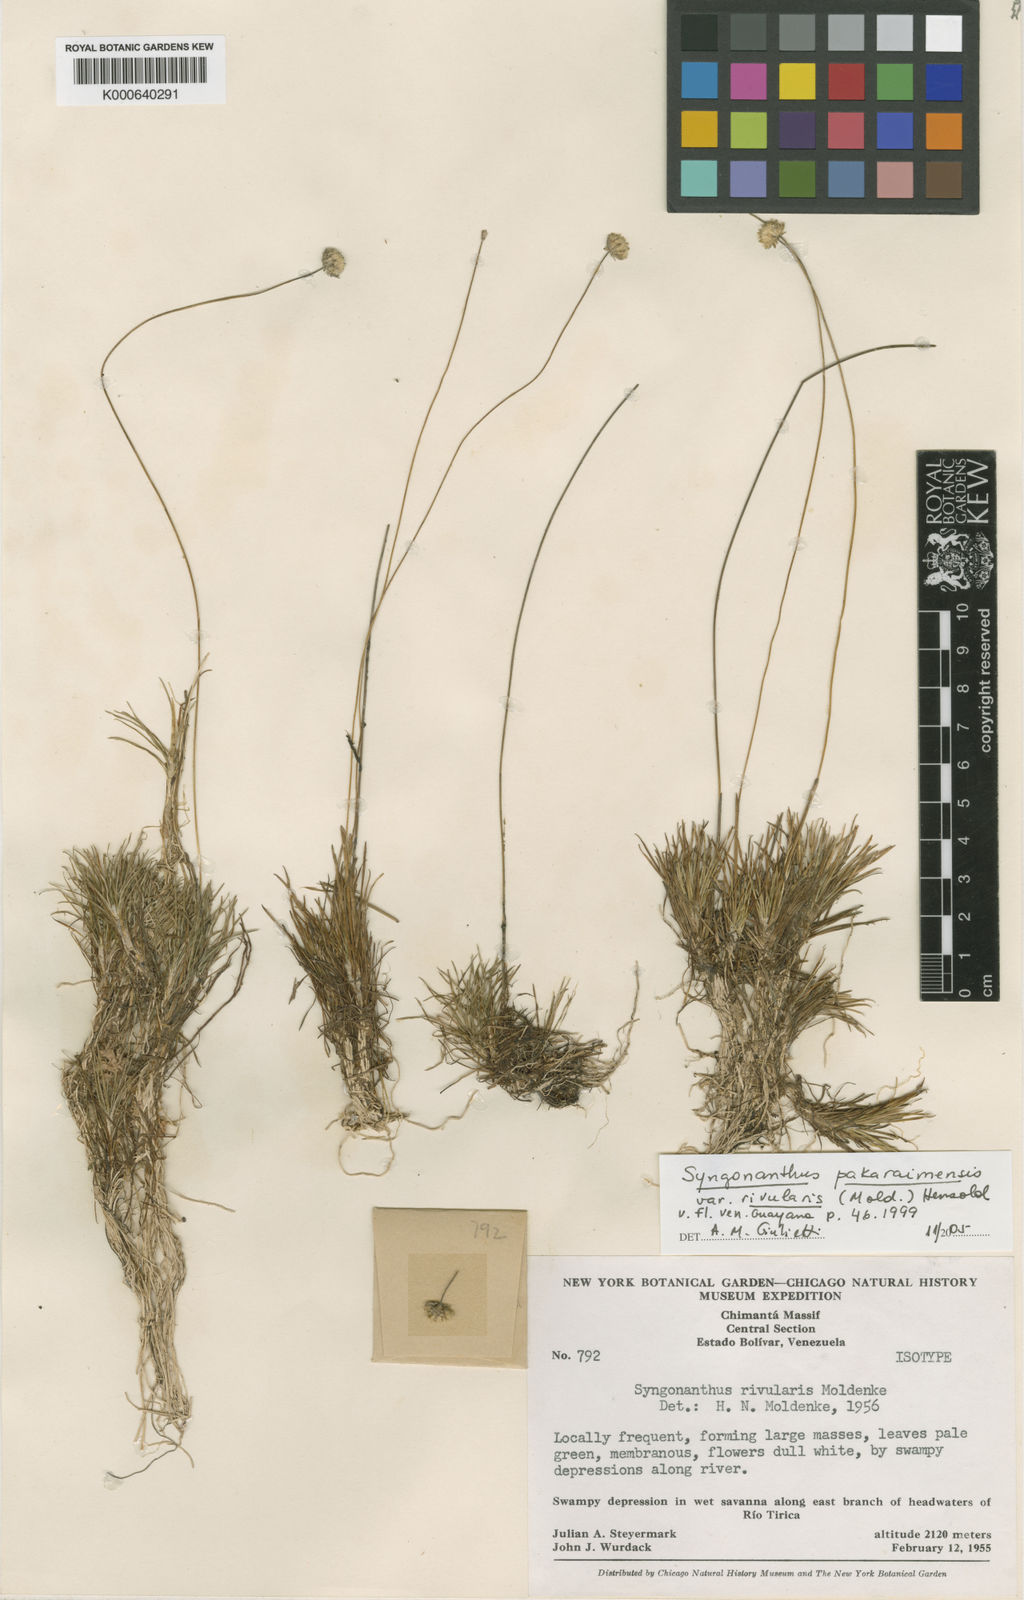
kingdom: Plantae
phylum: Tracheophyta
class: Liliopsida
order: Poales
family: Eriocaulaceae
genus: Syngonanthus
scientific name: Syngonanthus pakaraimensis
